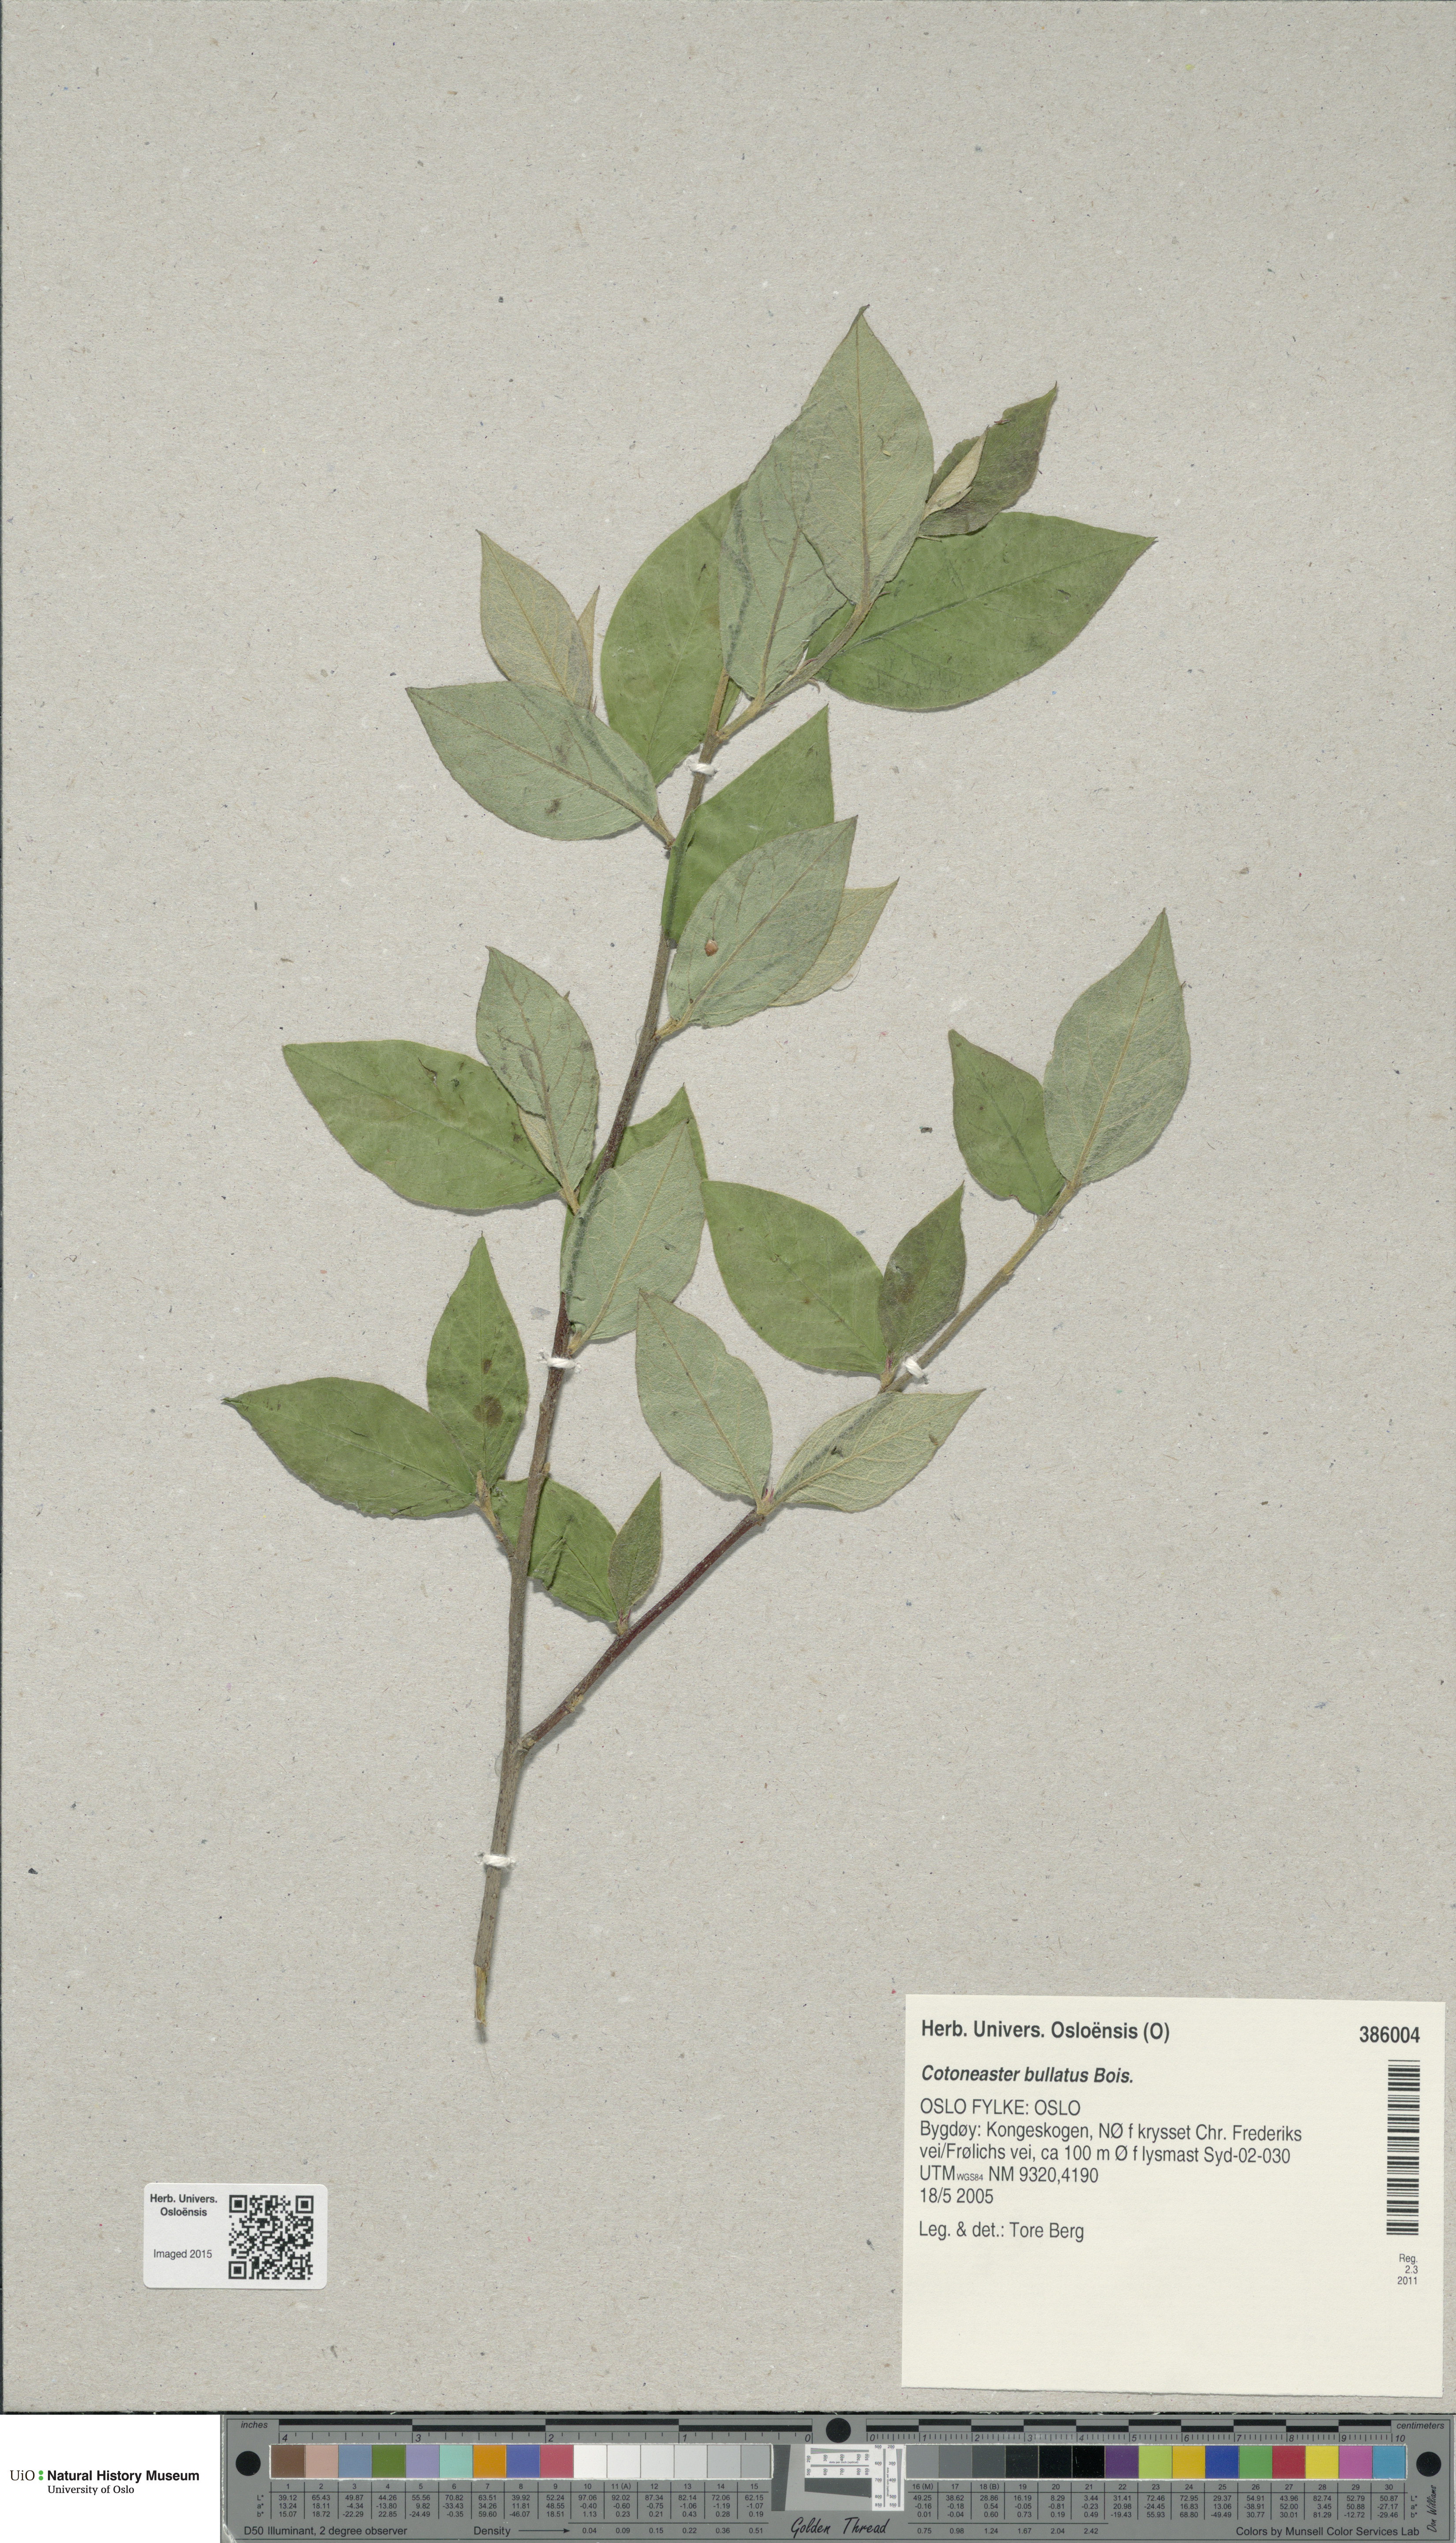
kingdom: Plantae
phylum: Tracheophyta
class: Magnoliopsida
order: Rosales
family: Rosaceae
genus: Cotoneaster
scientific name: Cotoneaster bullatus
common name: Hollyberry cotoneaster
